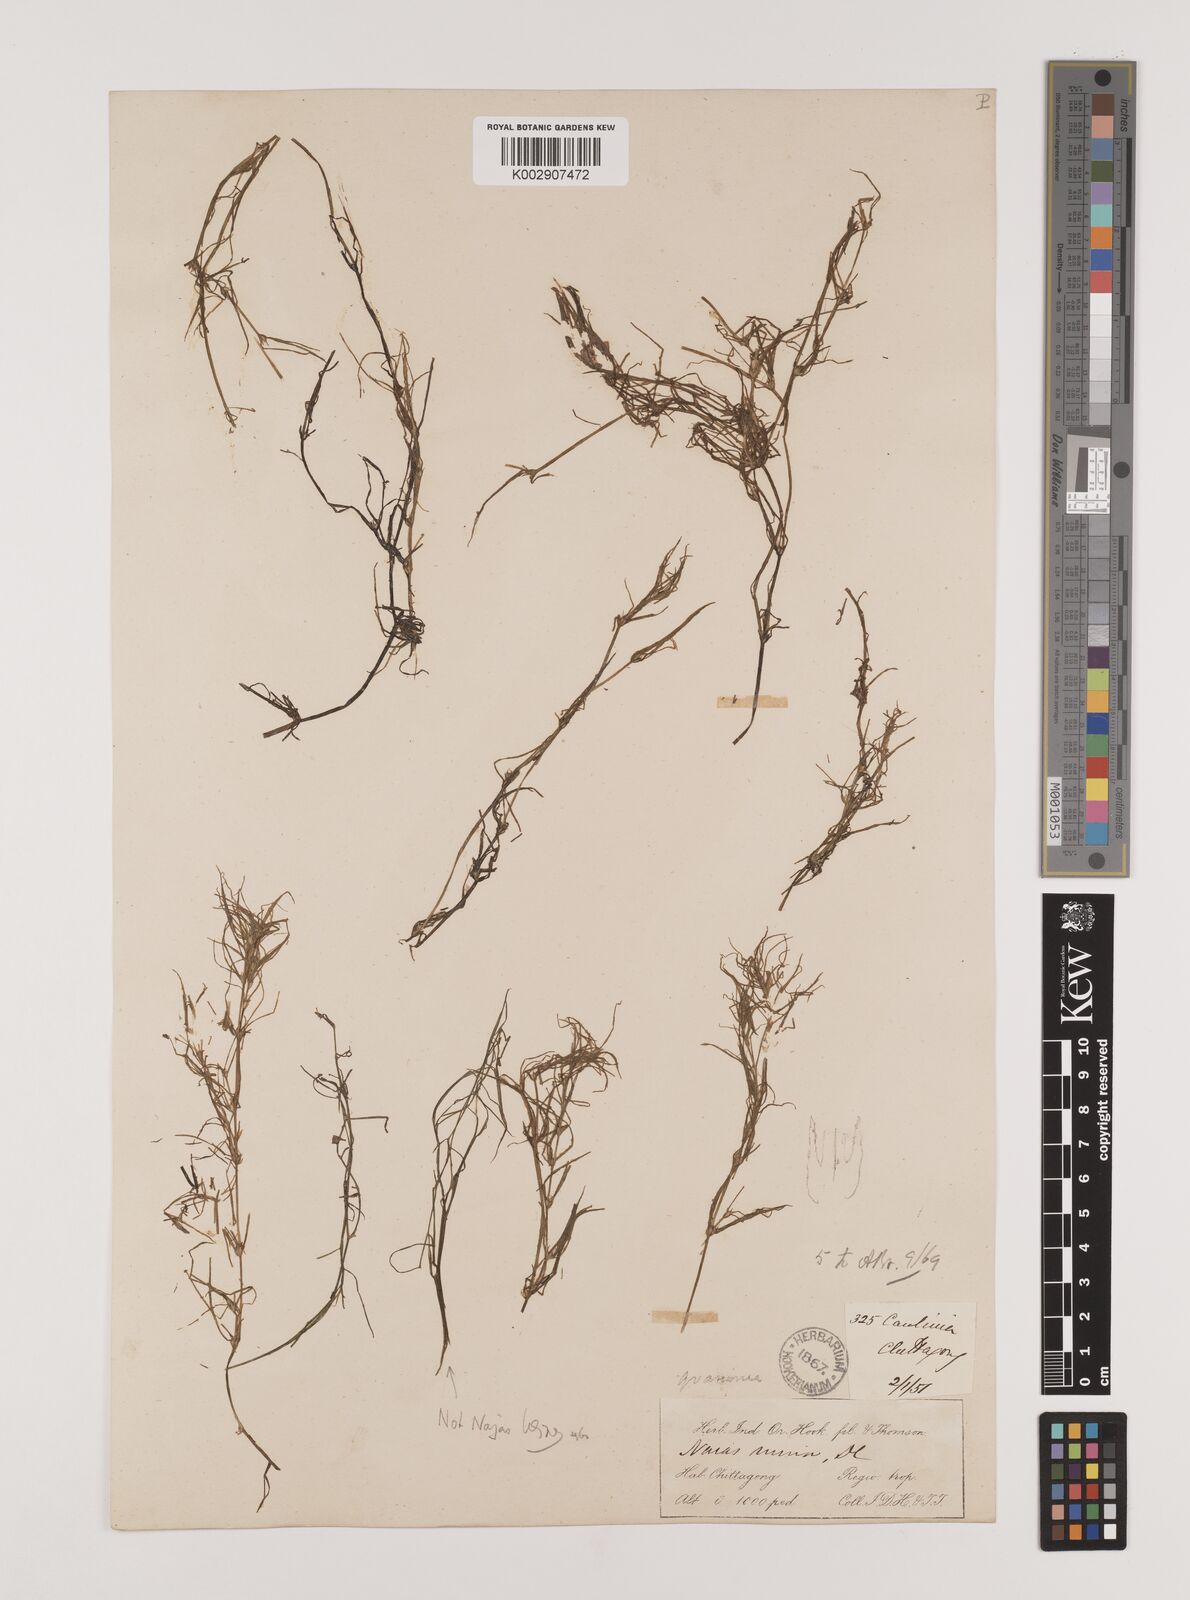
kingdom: Plantae
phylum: Tracheophyta
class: Liliopsida
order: Alismatales
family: Hydrocharitaceae
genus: Najas
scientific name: Najas graminea
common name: Ricefield waternymph
